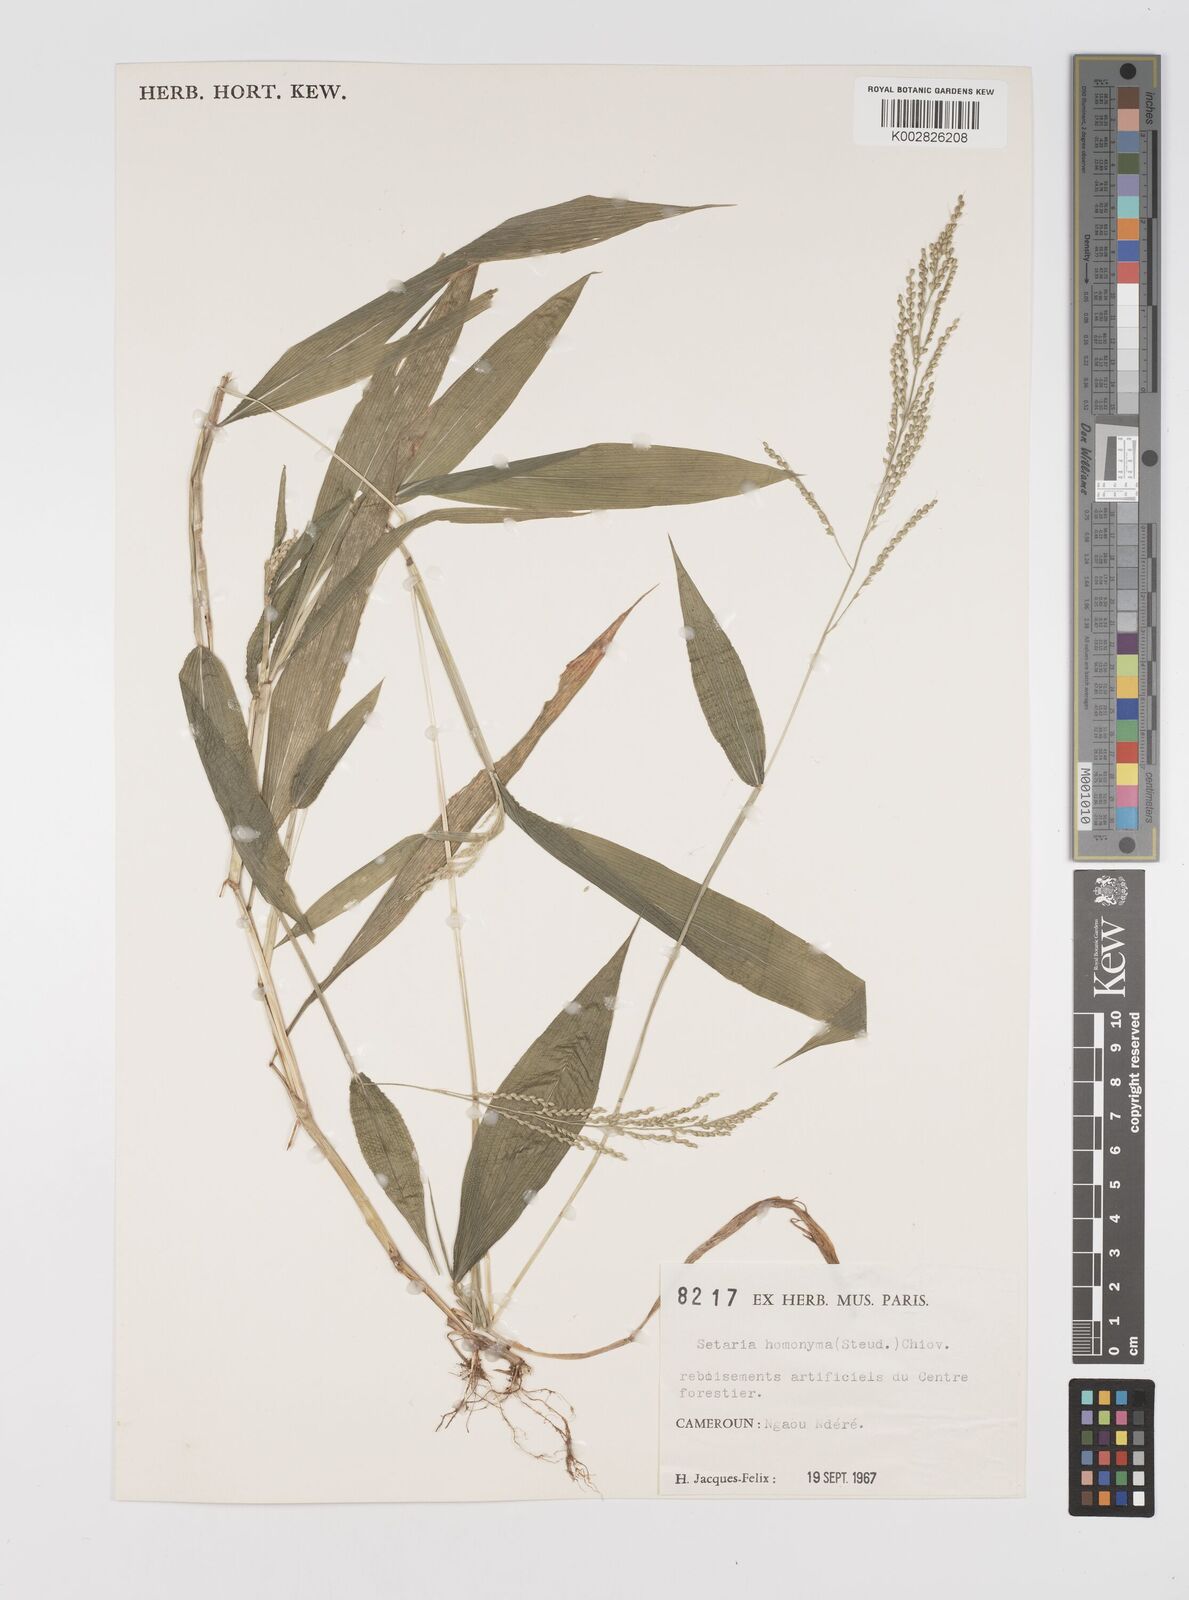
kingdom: Plantae
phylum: Tracheophyta
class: Liliopsida
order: Poales
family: Poaceae
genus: Setaria
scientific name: Setaria homonyma
